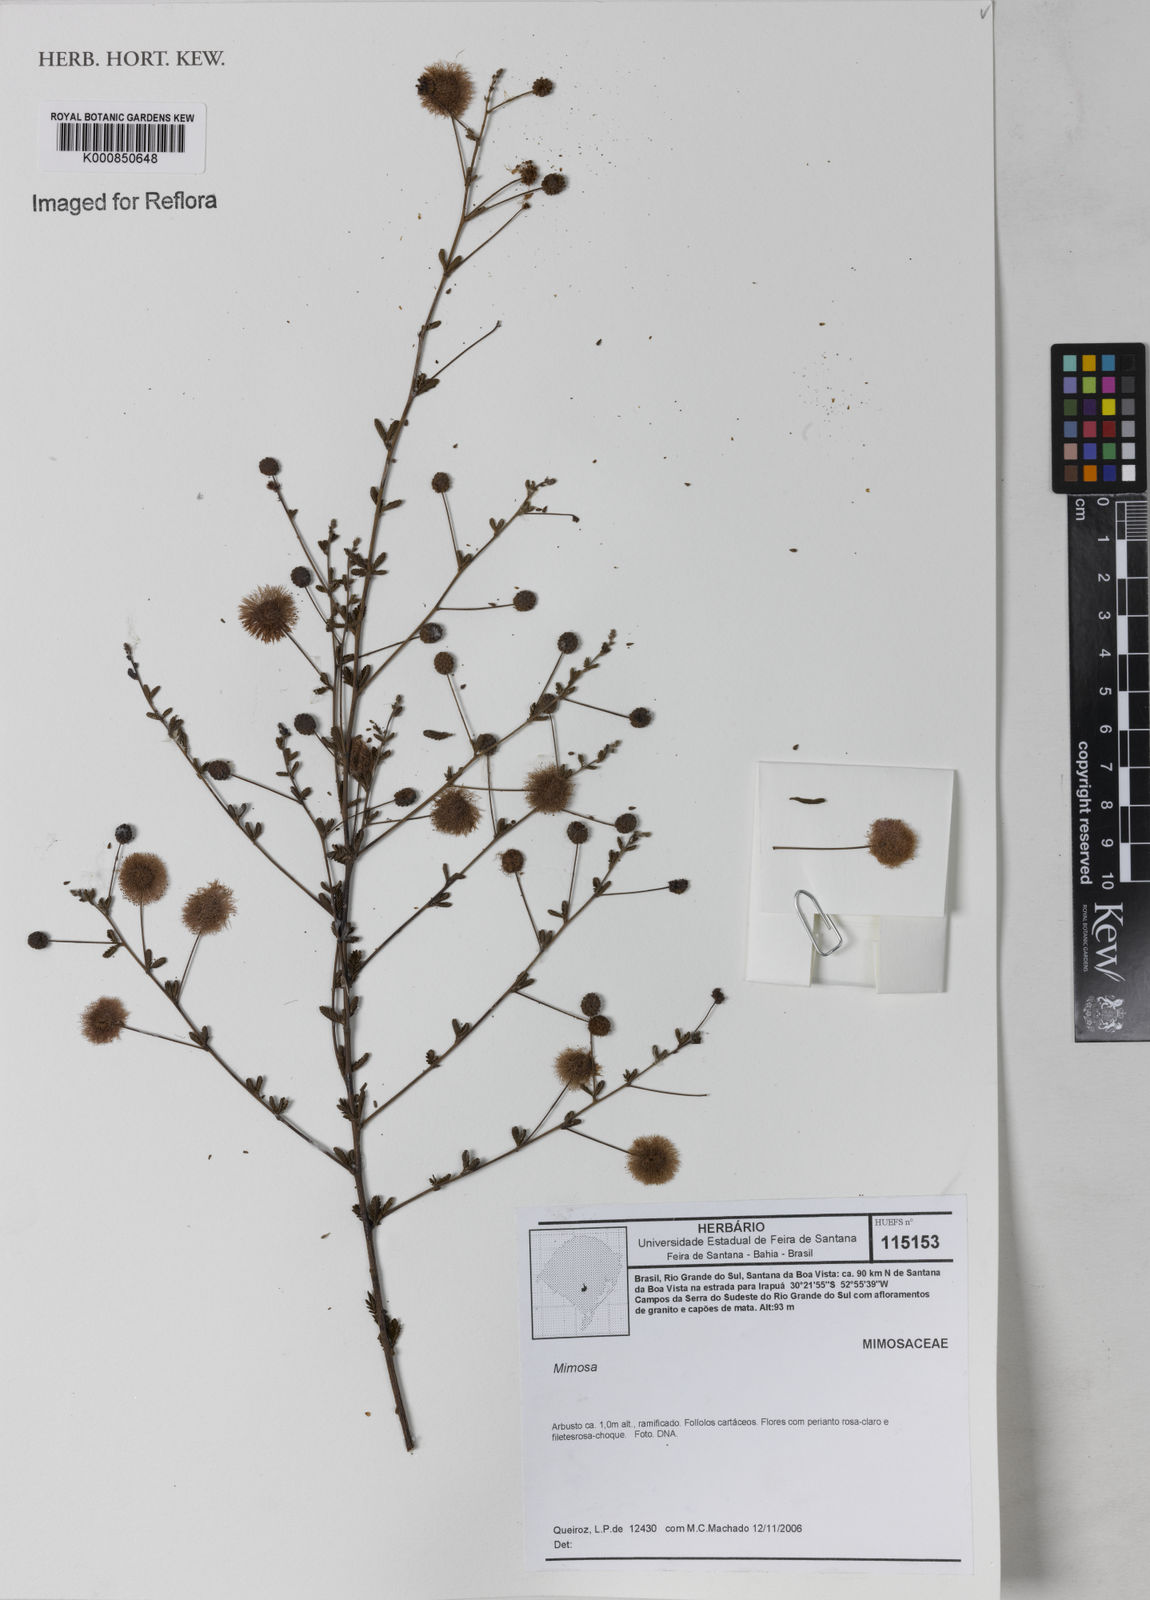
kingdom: Plantae
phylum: Tracheophyta
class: Magnoliopsida
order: Fabales
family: Fabaceae
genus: Mimosa
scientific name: Mimosa
